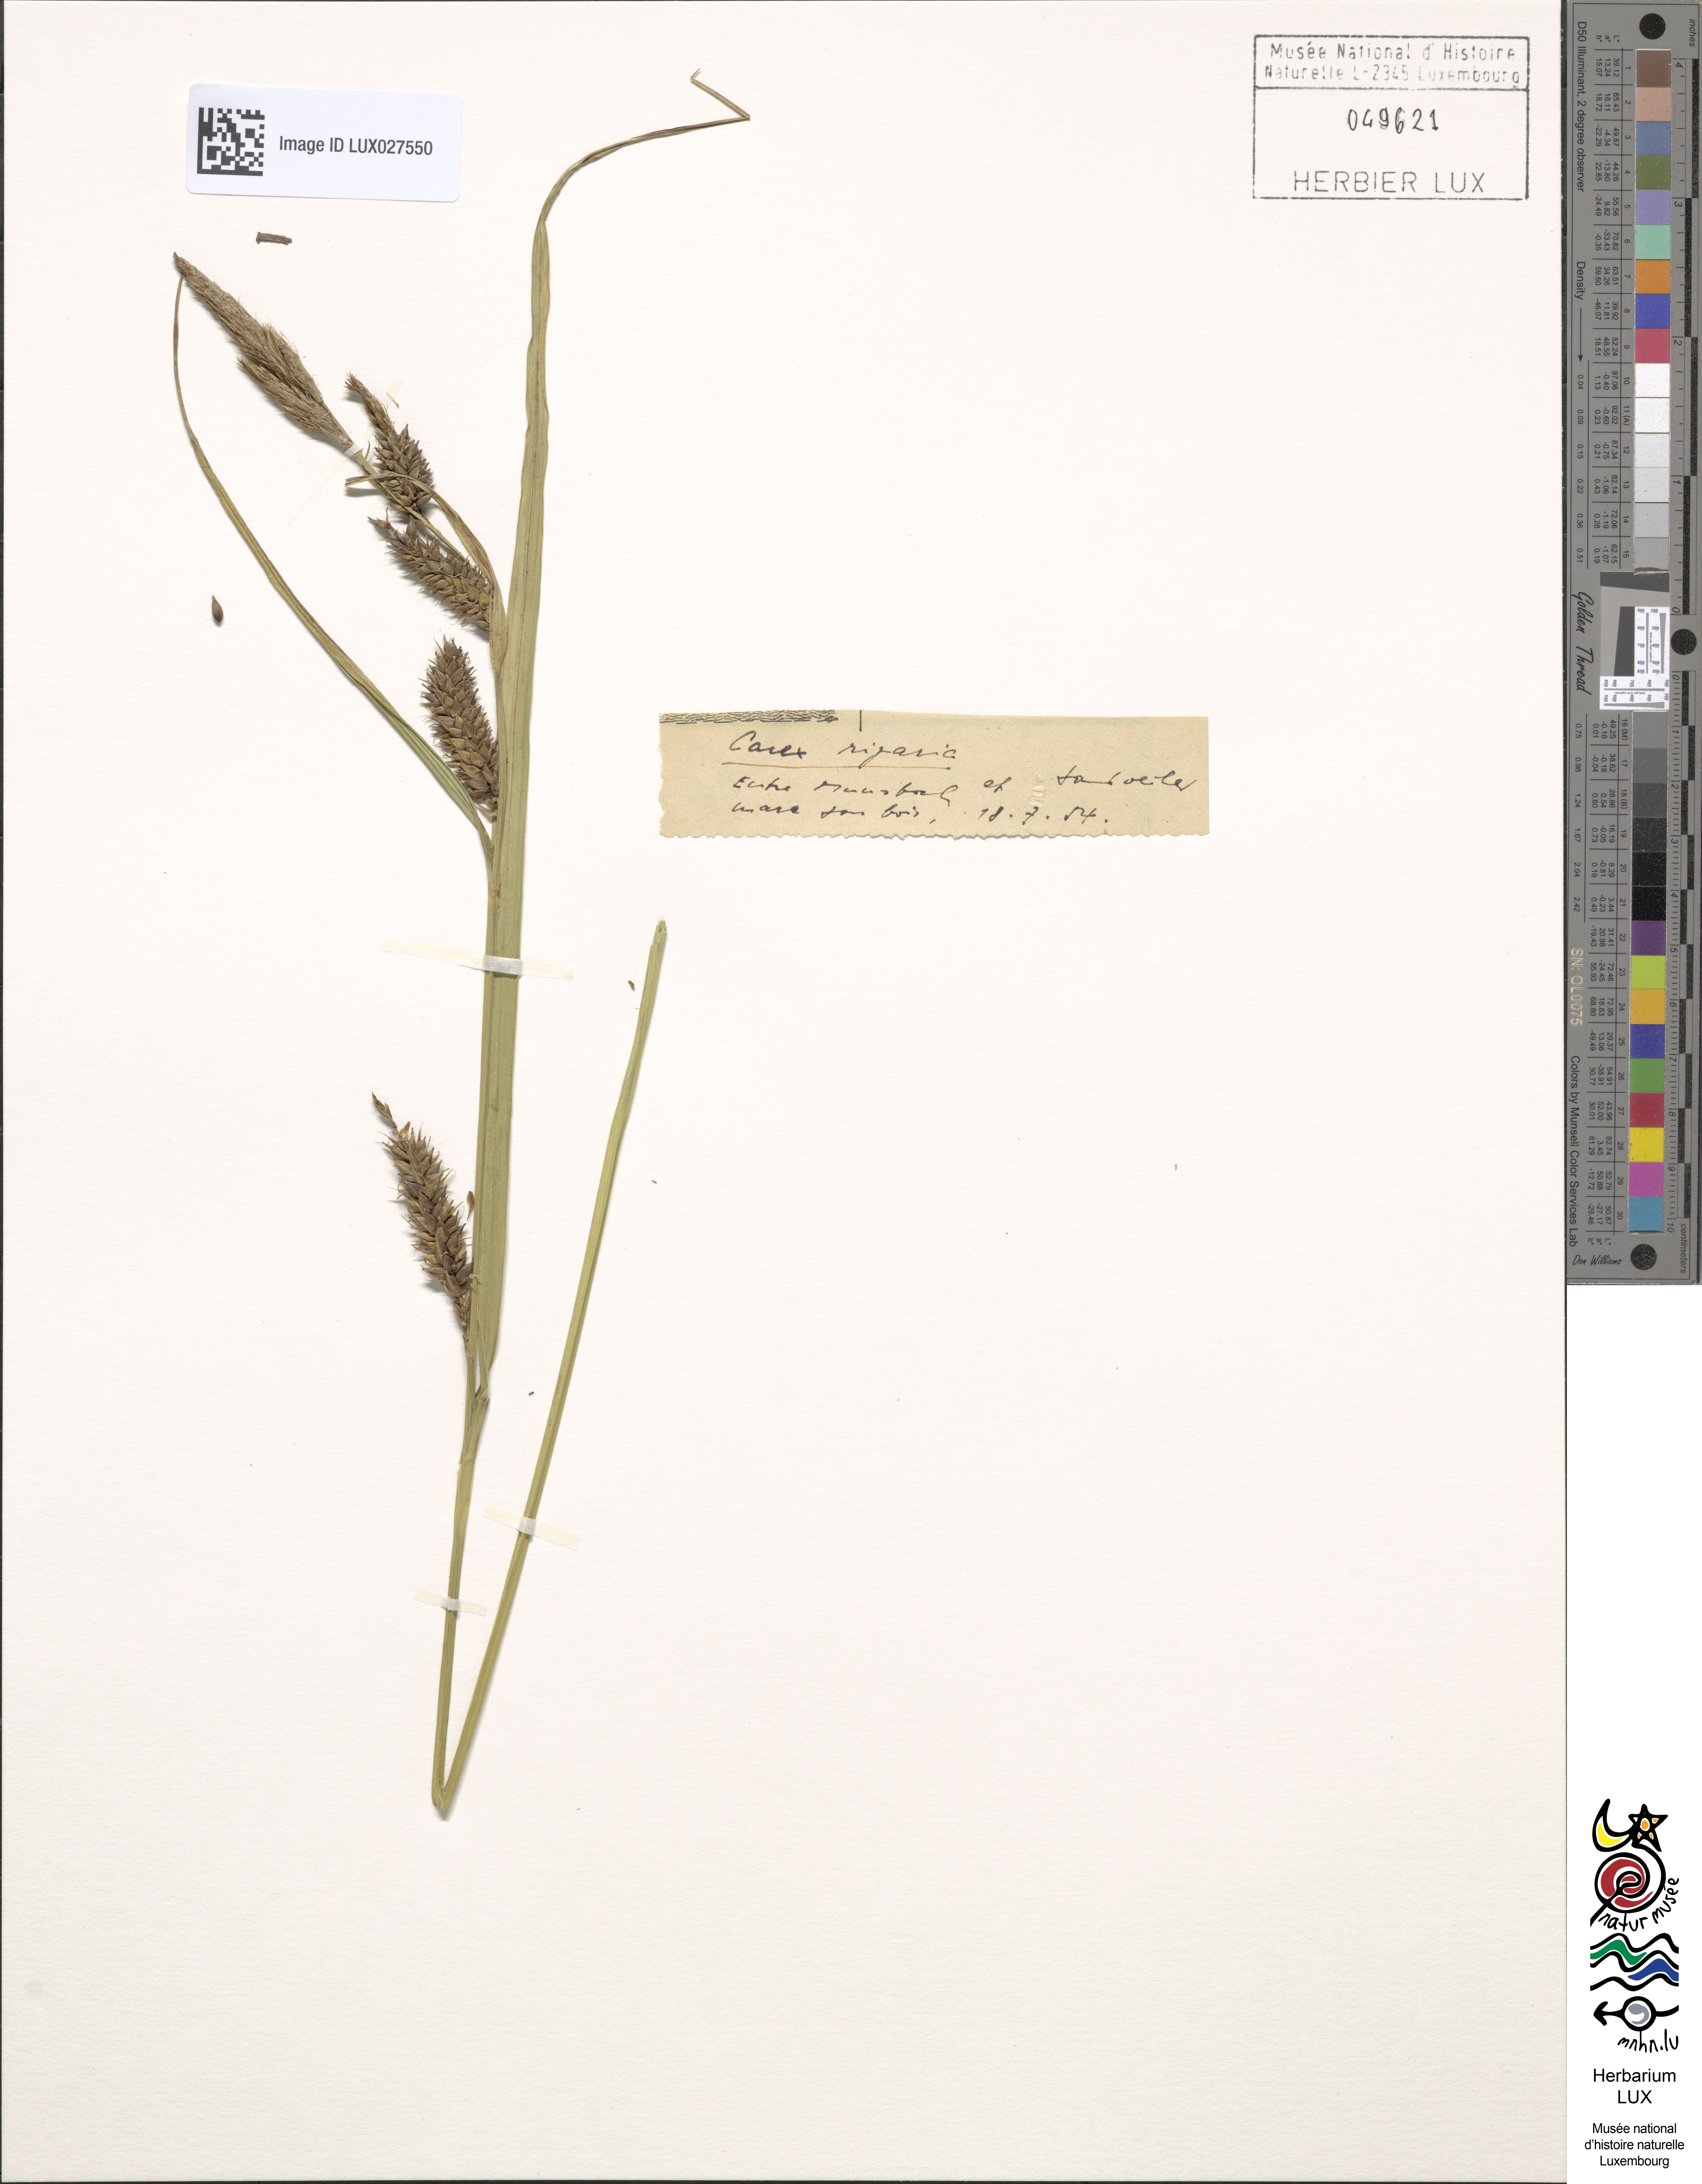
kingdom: Plantae
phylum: Tracheophyta
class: Liliopsida
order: Poales
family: Cyperaceae
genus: Carex
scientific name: Carex riparia
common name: Greater pond-sedge
